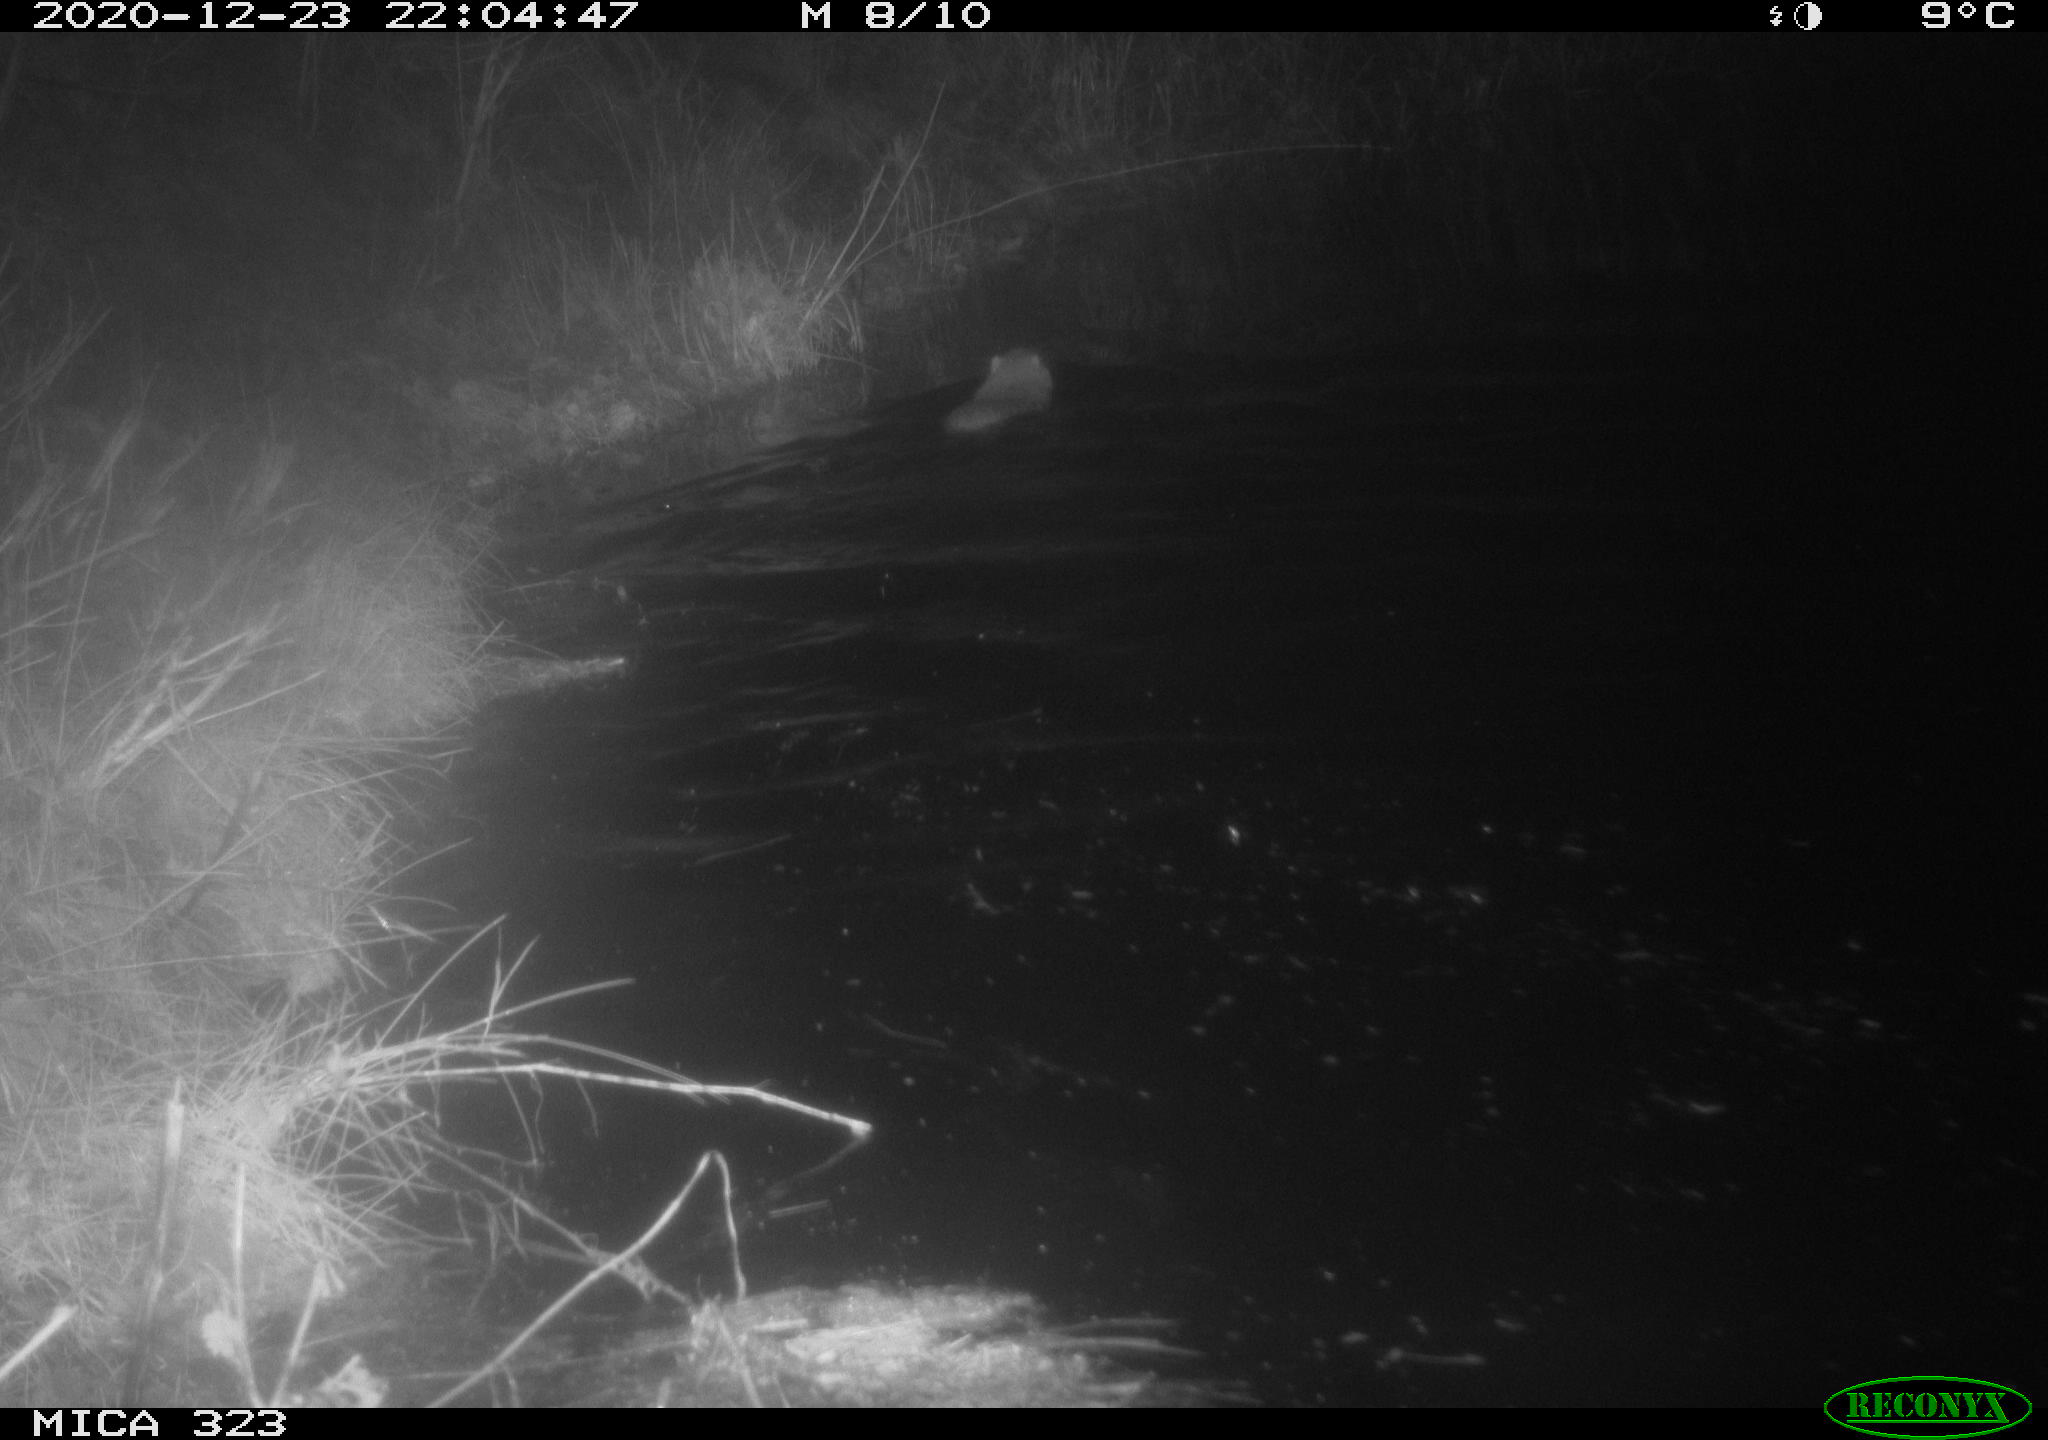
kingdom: Animalia
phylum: Chordata
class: Mammalia
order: Rodentia
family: Myocastoridae
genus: Myocastor
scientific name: Myocastor coypus
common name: Coypu
